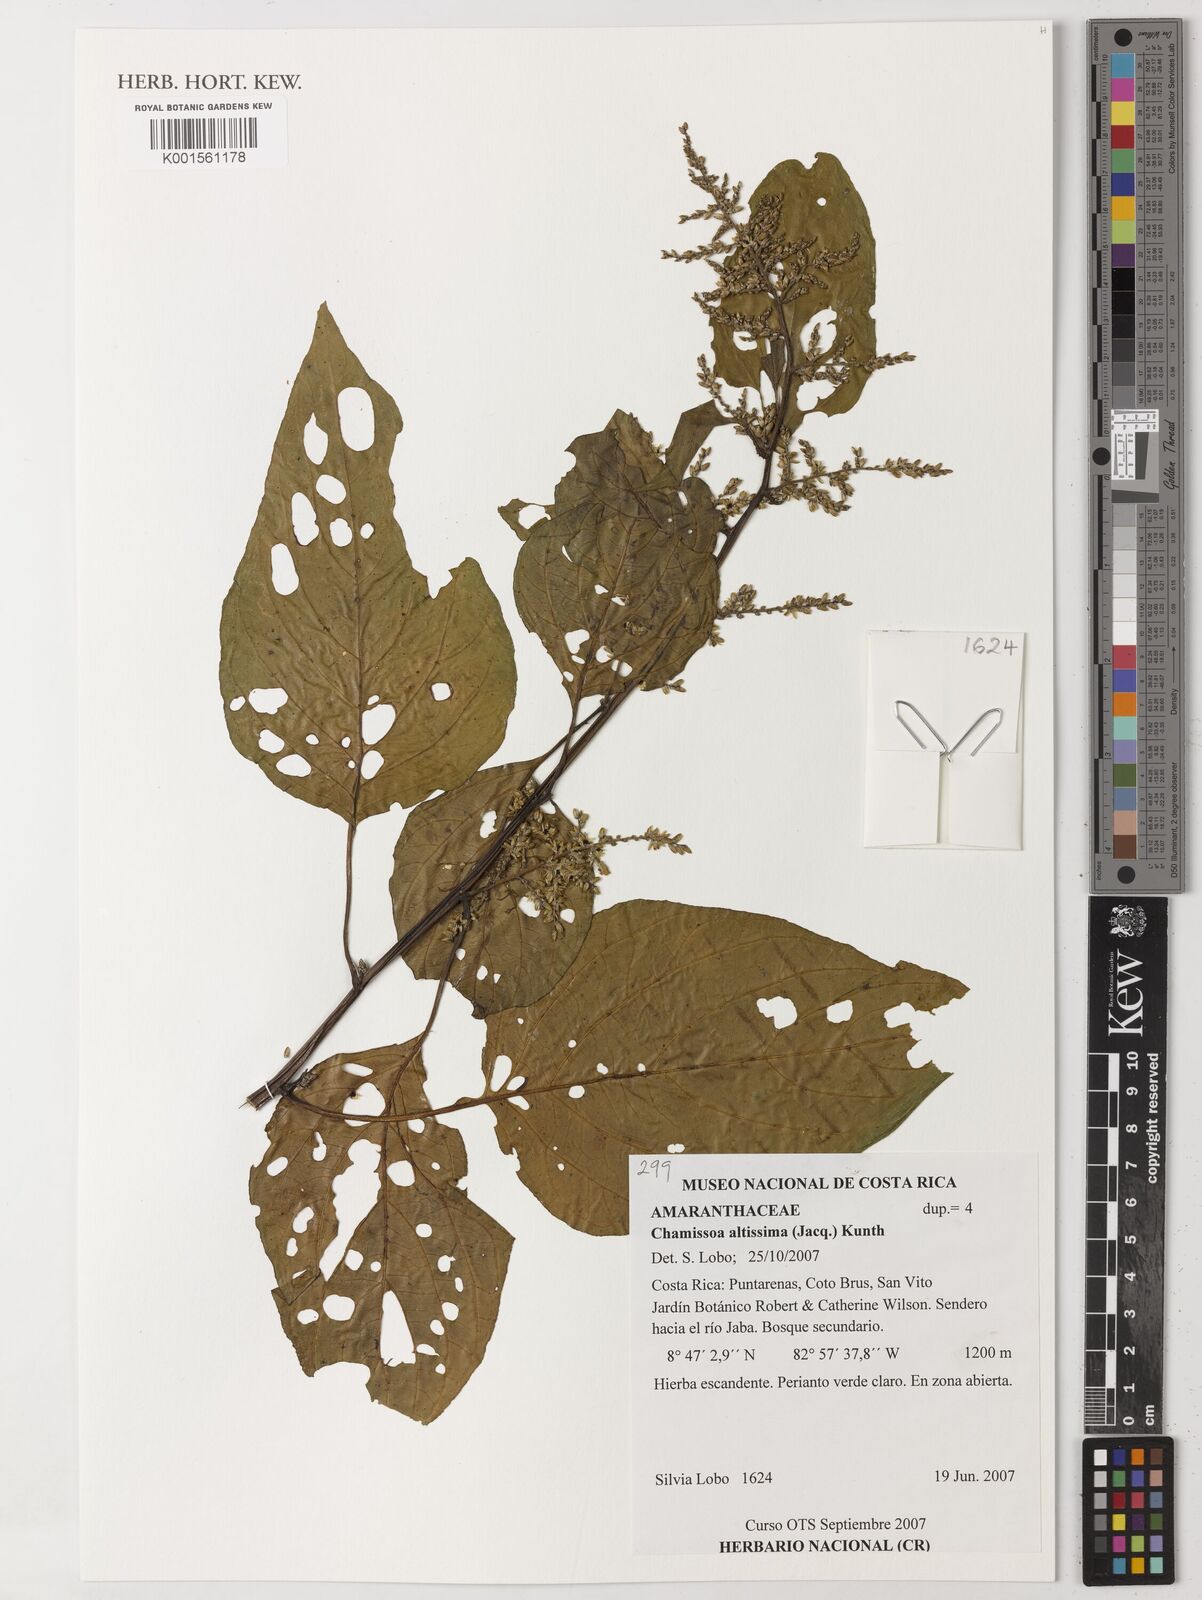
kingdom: Plantae
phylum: Tracheophyta
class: Magnoliopsida
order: Caryophyllales
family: Amaranthaceae
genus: Chamissoa
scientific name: Chamissoa altissima
